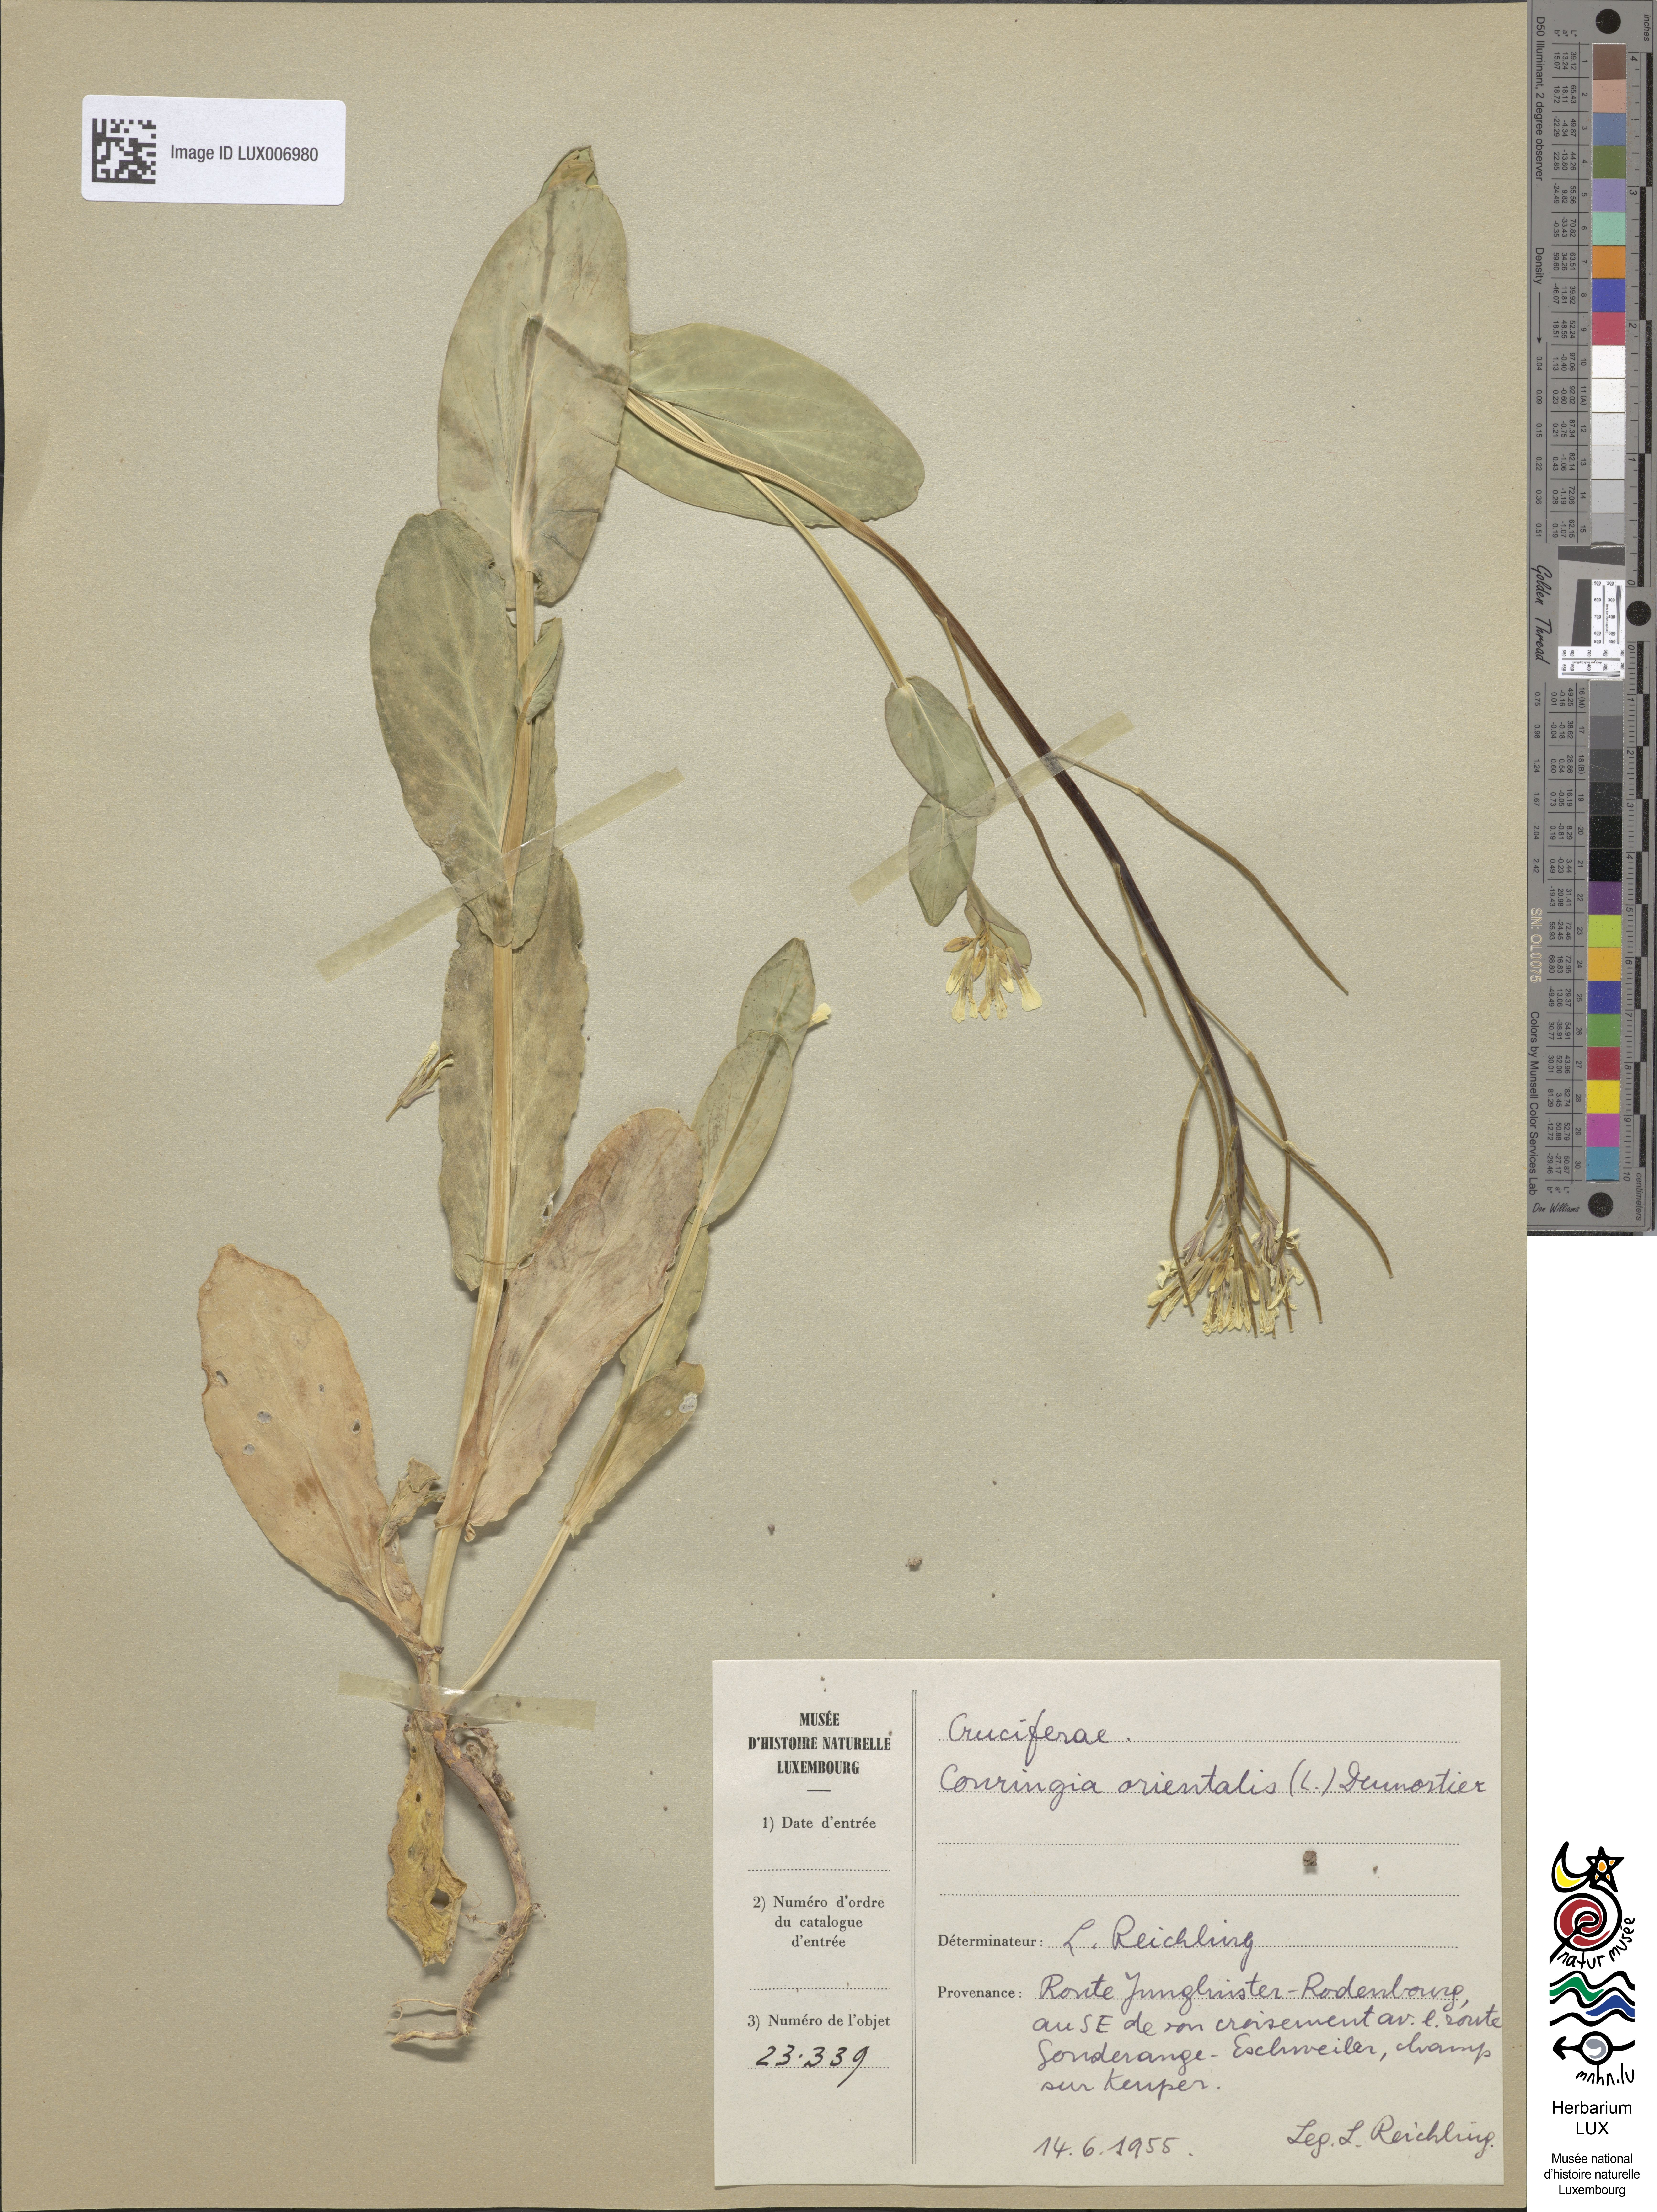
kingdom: Plantae
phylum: Tracheophyta
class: Magnoliopsida
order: Brassicales
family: Brassicaceae
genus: Conringia
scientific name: Conringia orientalis
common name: Hare's ear mustard
